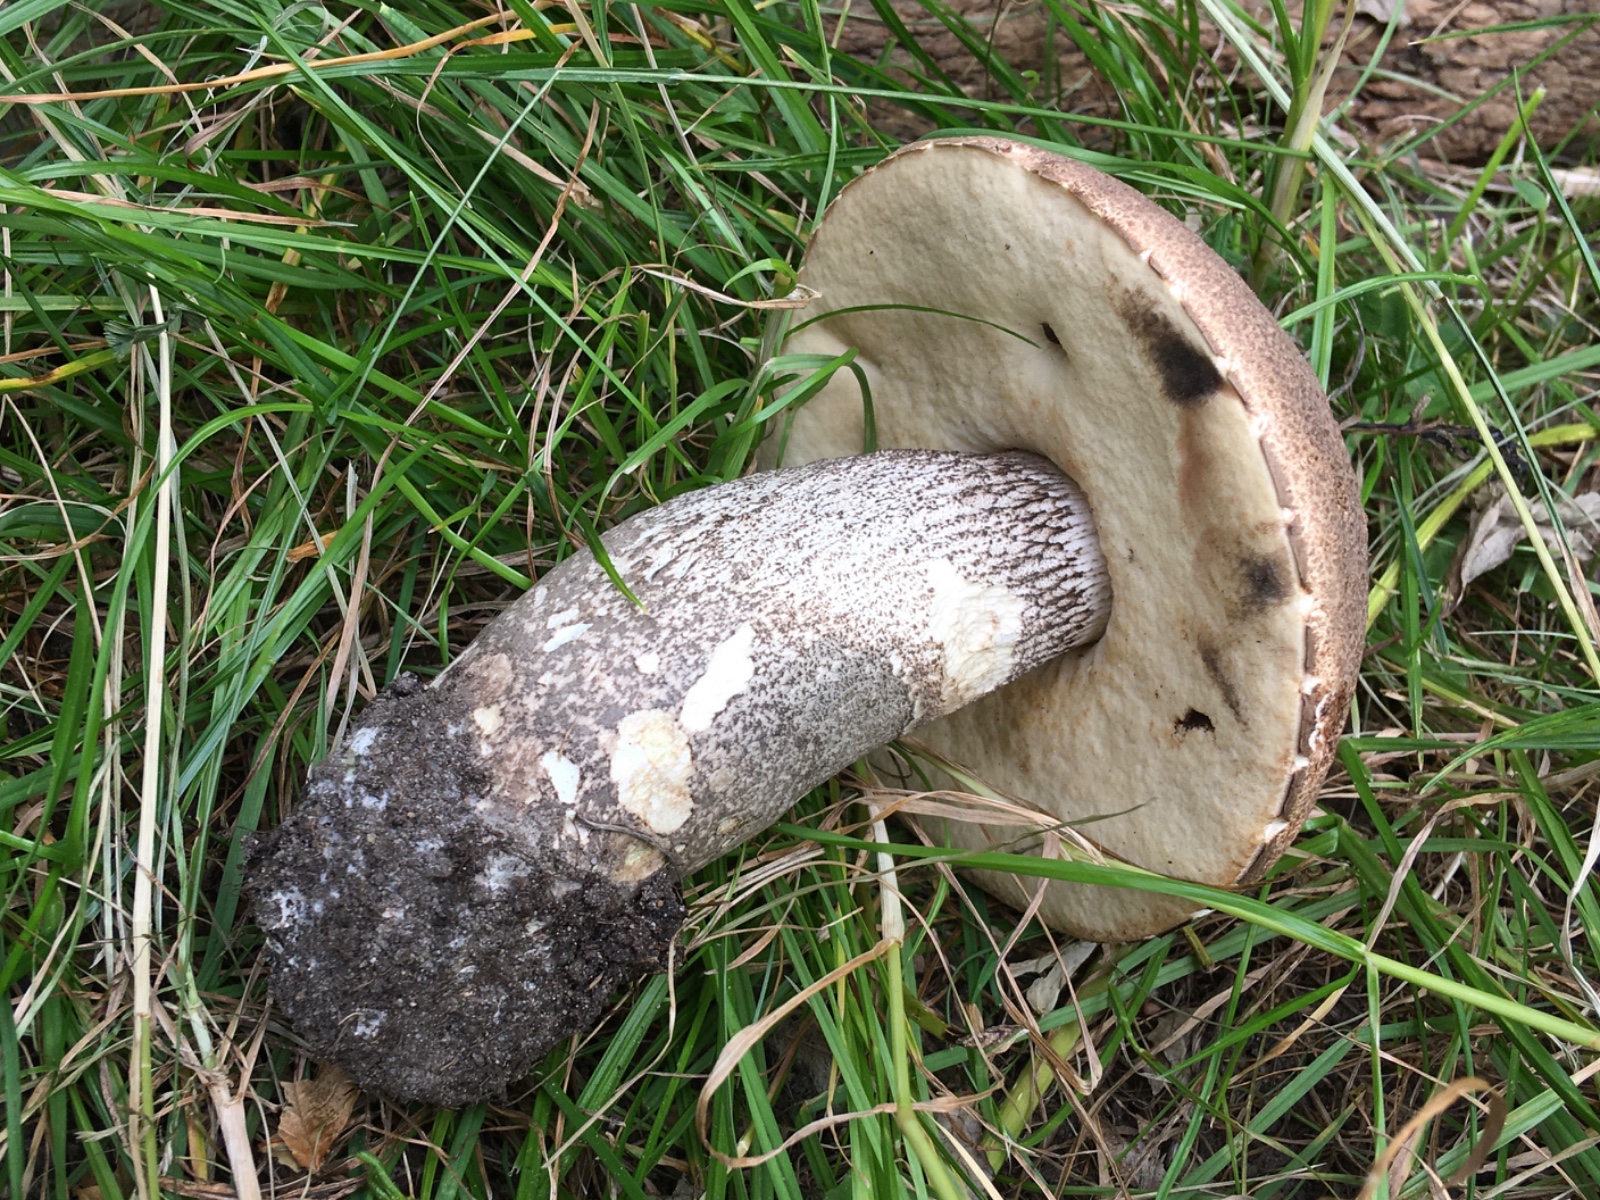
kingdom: Fungi
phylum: Basidiomycota
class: Agaricomycetes
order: Boletales
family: Boletaceae
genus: Leccinum
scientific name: Leccinum duriusculum
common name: poppel-skælrørhat
